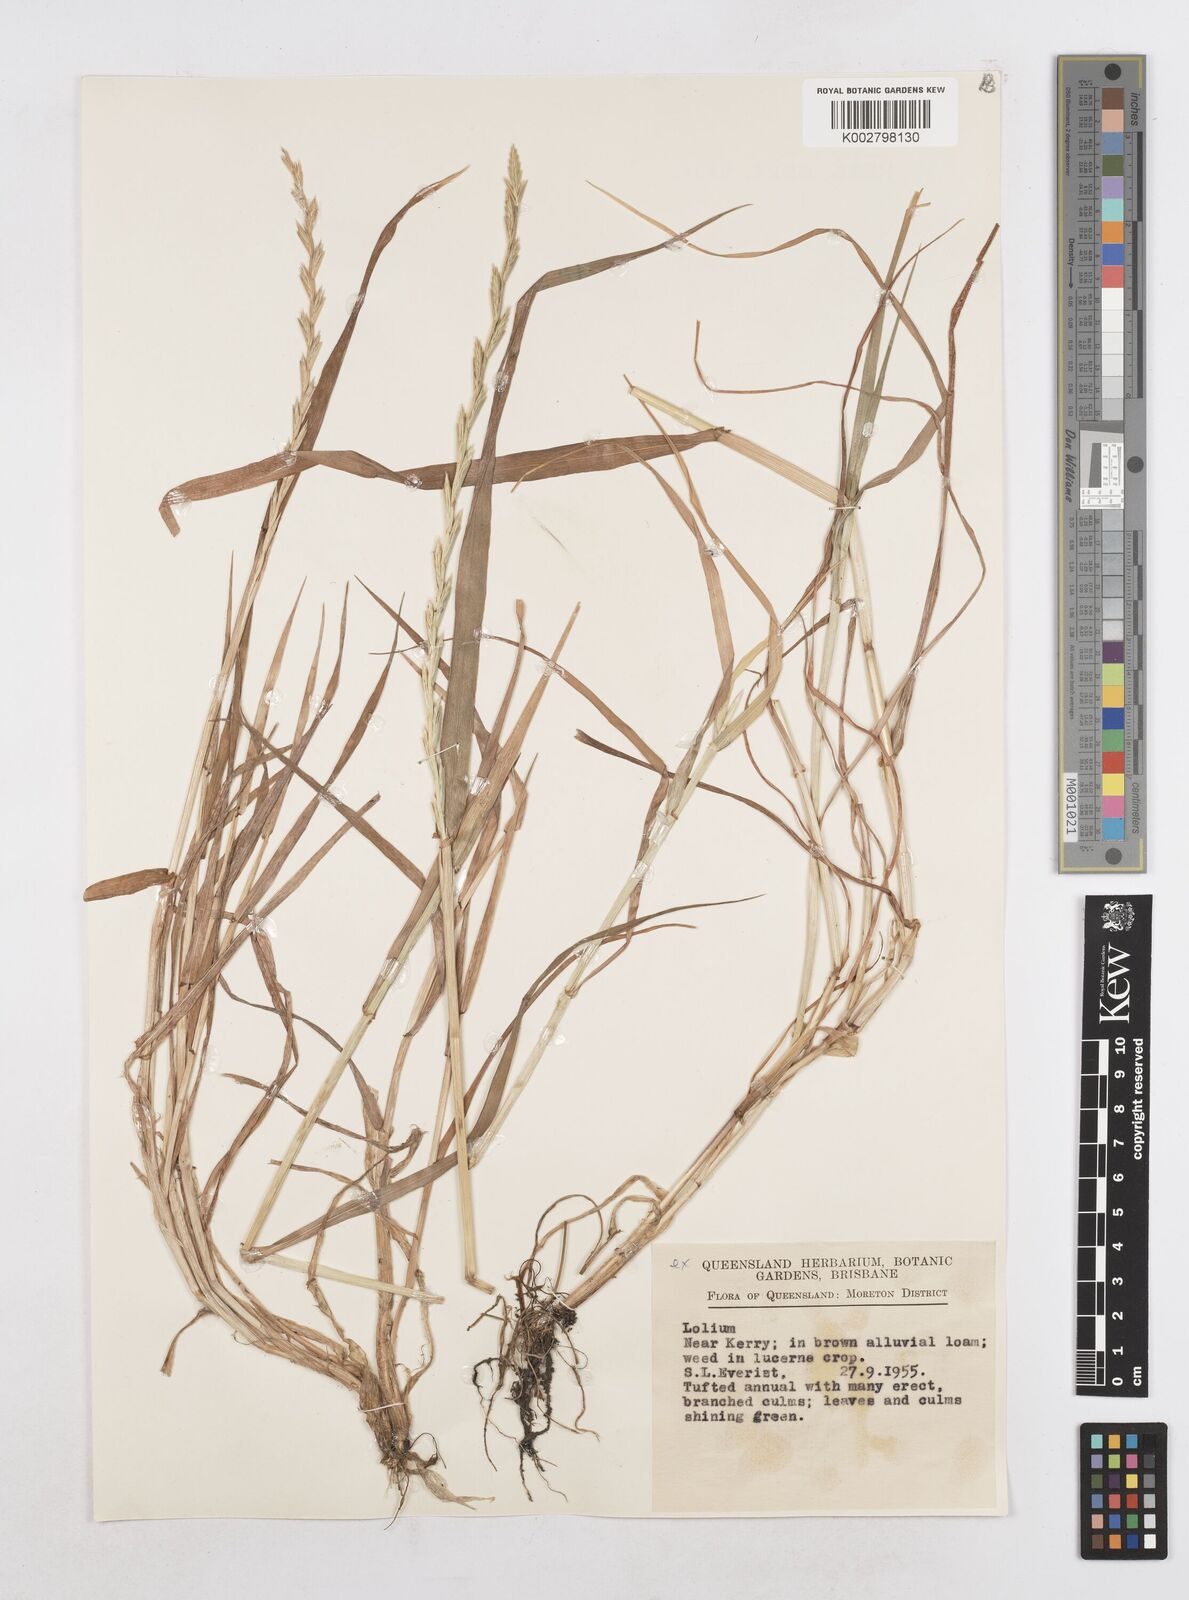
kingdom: Plantae
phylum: Tracheophyta
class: Liliopsida
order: Poales
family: Poaceae
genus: Lolium
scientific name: Lolium
